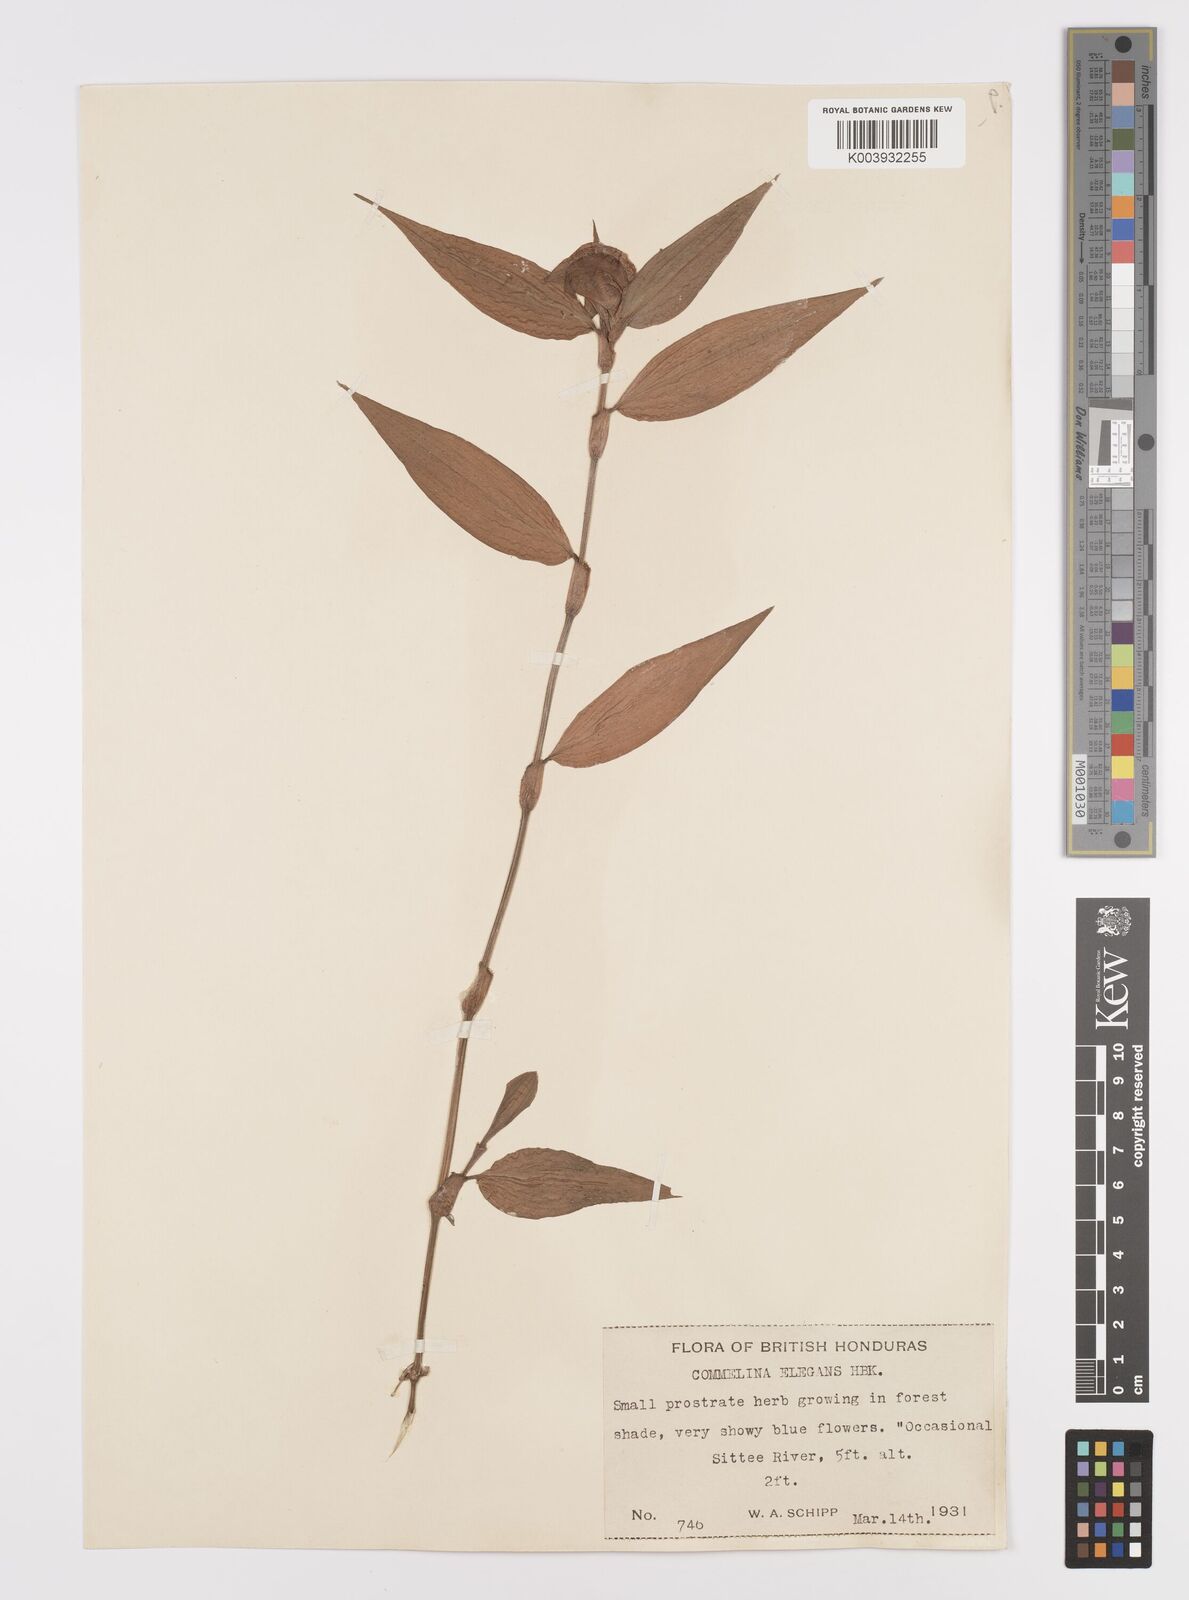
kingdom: Plantae
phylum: Tracheophyta
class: Liliopsida
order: Commelinales
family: Commelinaceae
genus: Commelina
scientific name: Commelina erecta
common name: Blousel blommetjie
